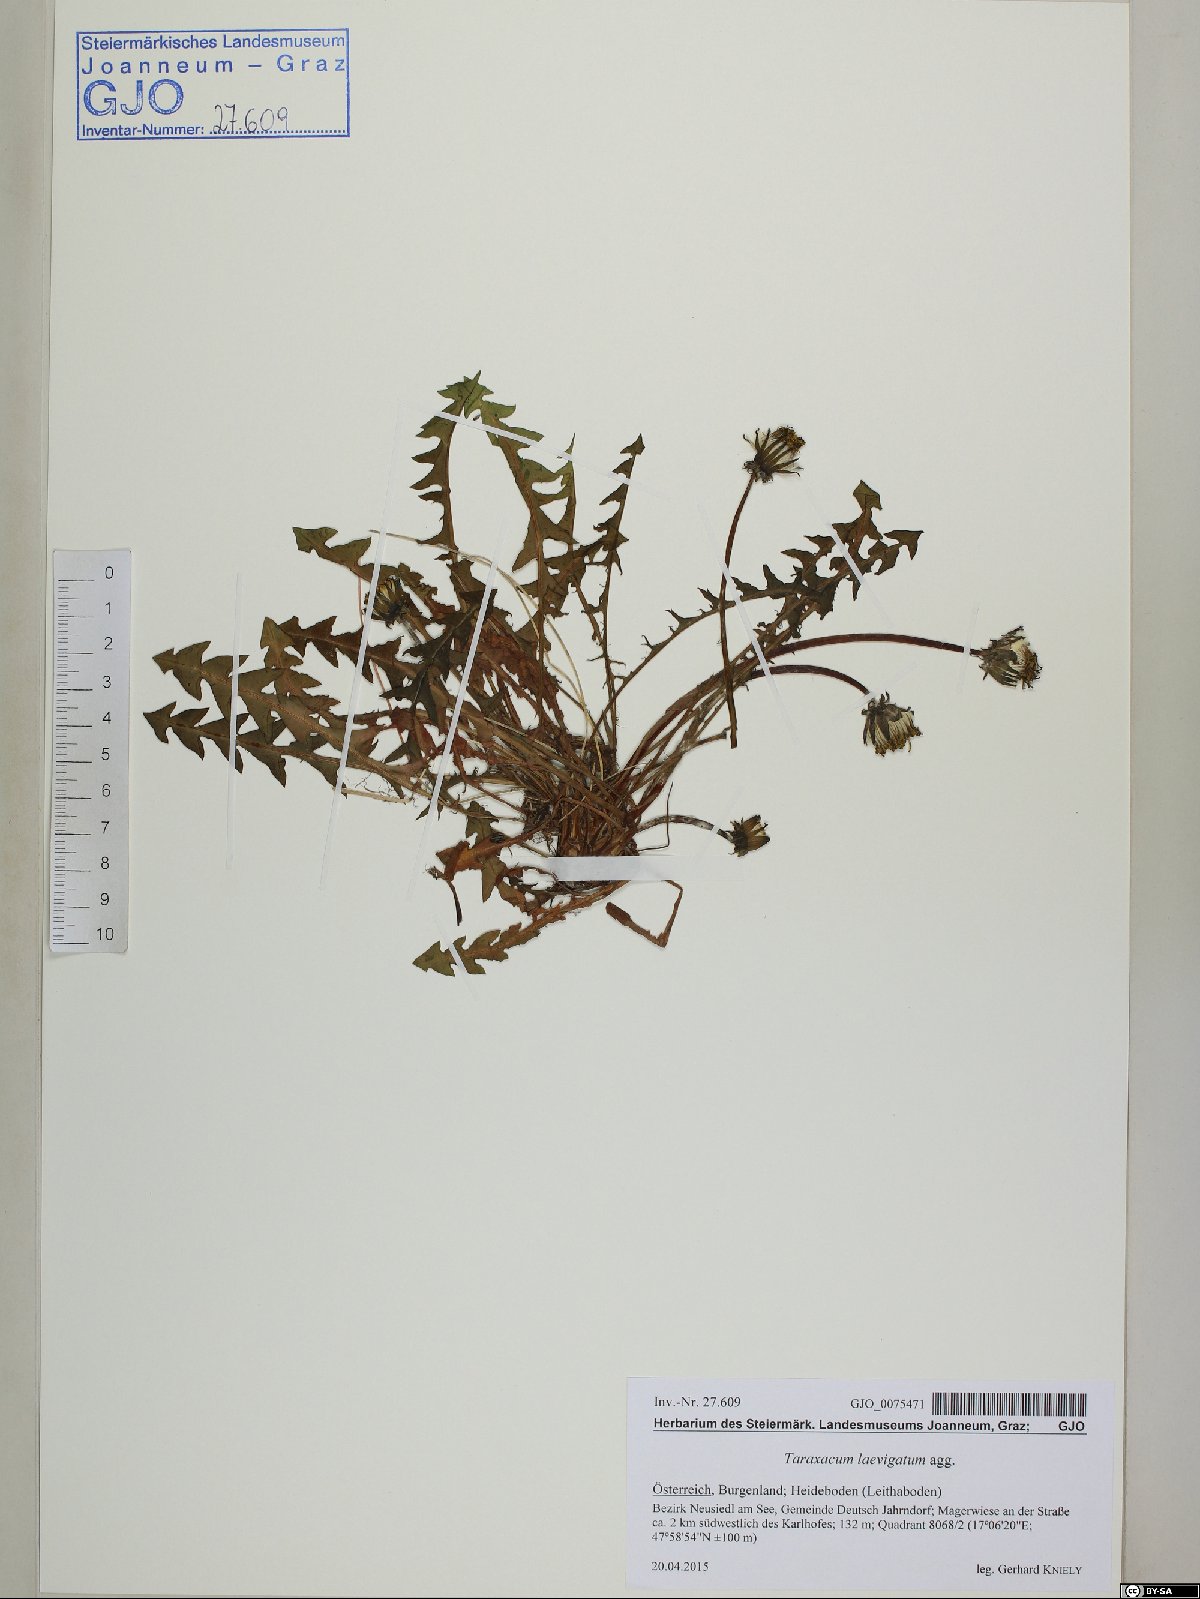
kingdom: Plantae
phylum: Tracheophyta
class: Magnoliopsida
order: Asterales
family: Asteraceae
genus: Taraxacum
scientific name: Taraxacum erythrospermum
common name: Rock dandelion
